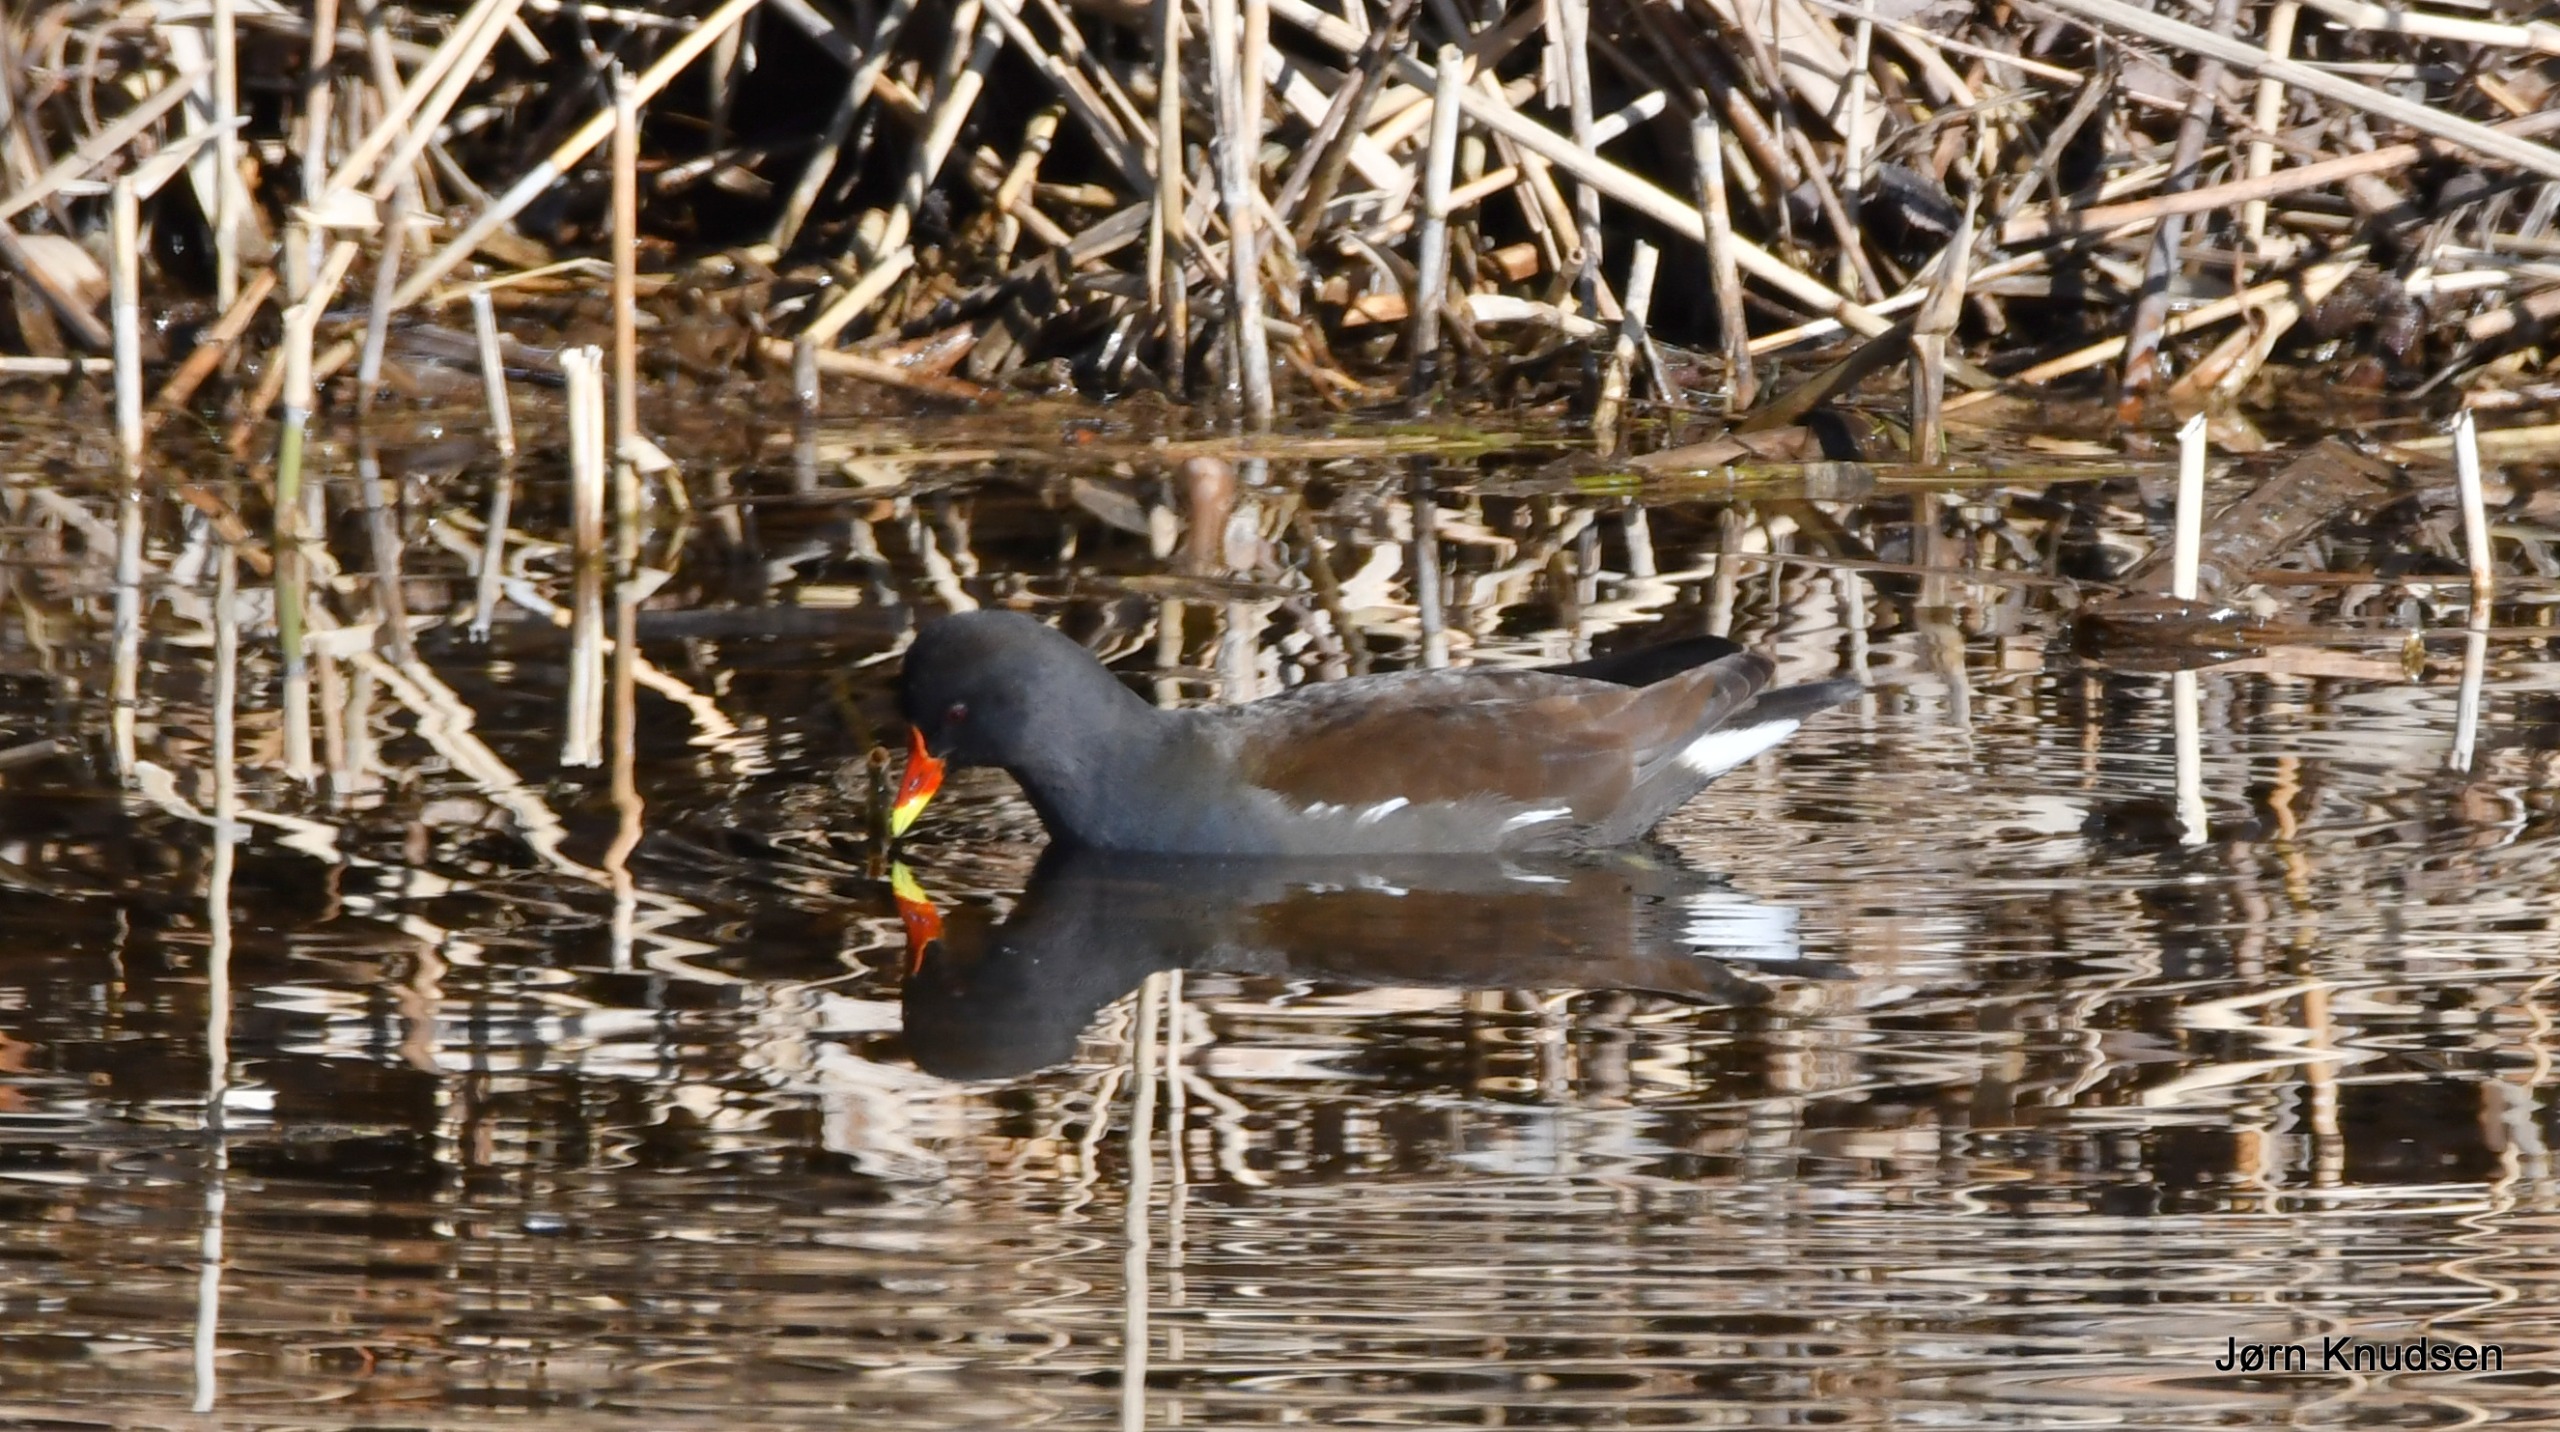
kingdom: Animalia
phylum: Chordata
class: Aves
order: Gruiformes
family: Rallidae
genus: Gallinula
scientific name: Gallinula chloropus
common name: Grønbenet rørhøne
